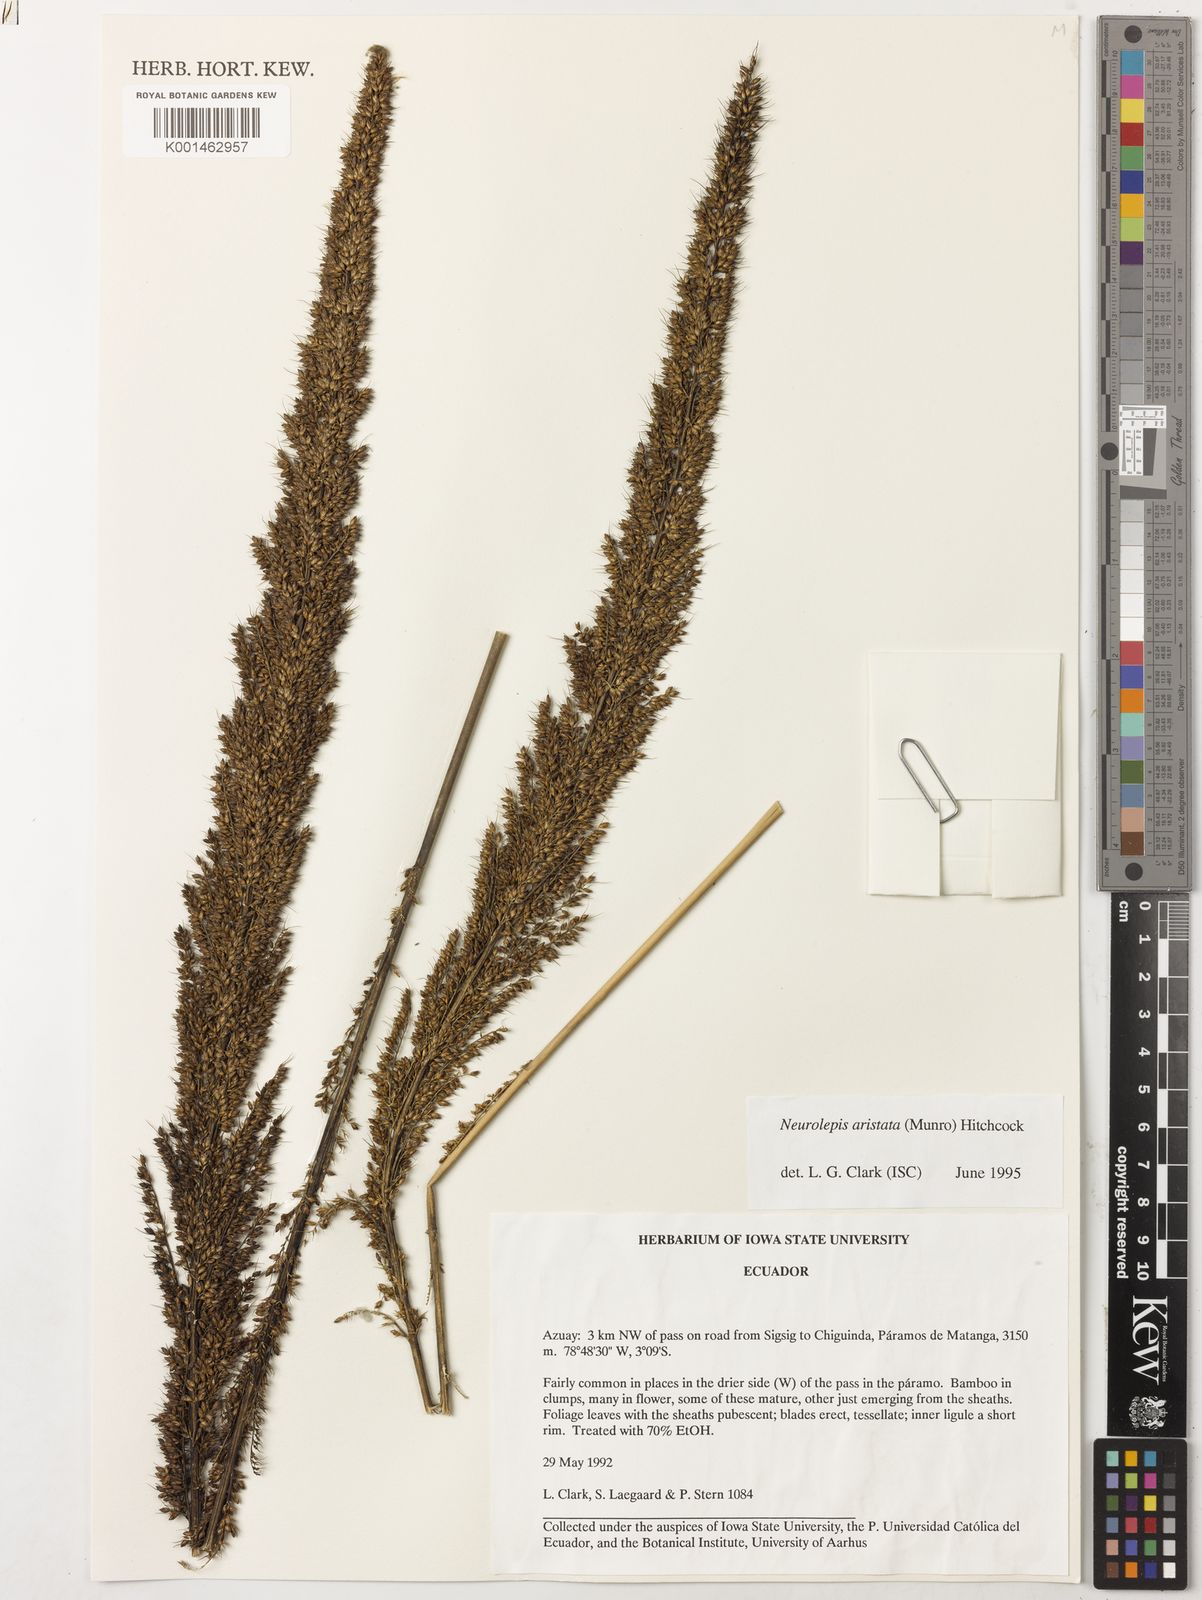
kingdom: Plantae
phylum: Tracheophyta
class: Liliopsida
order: Poales
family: Poaceae
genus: Chusquea
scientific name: Chusquea aristata
